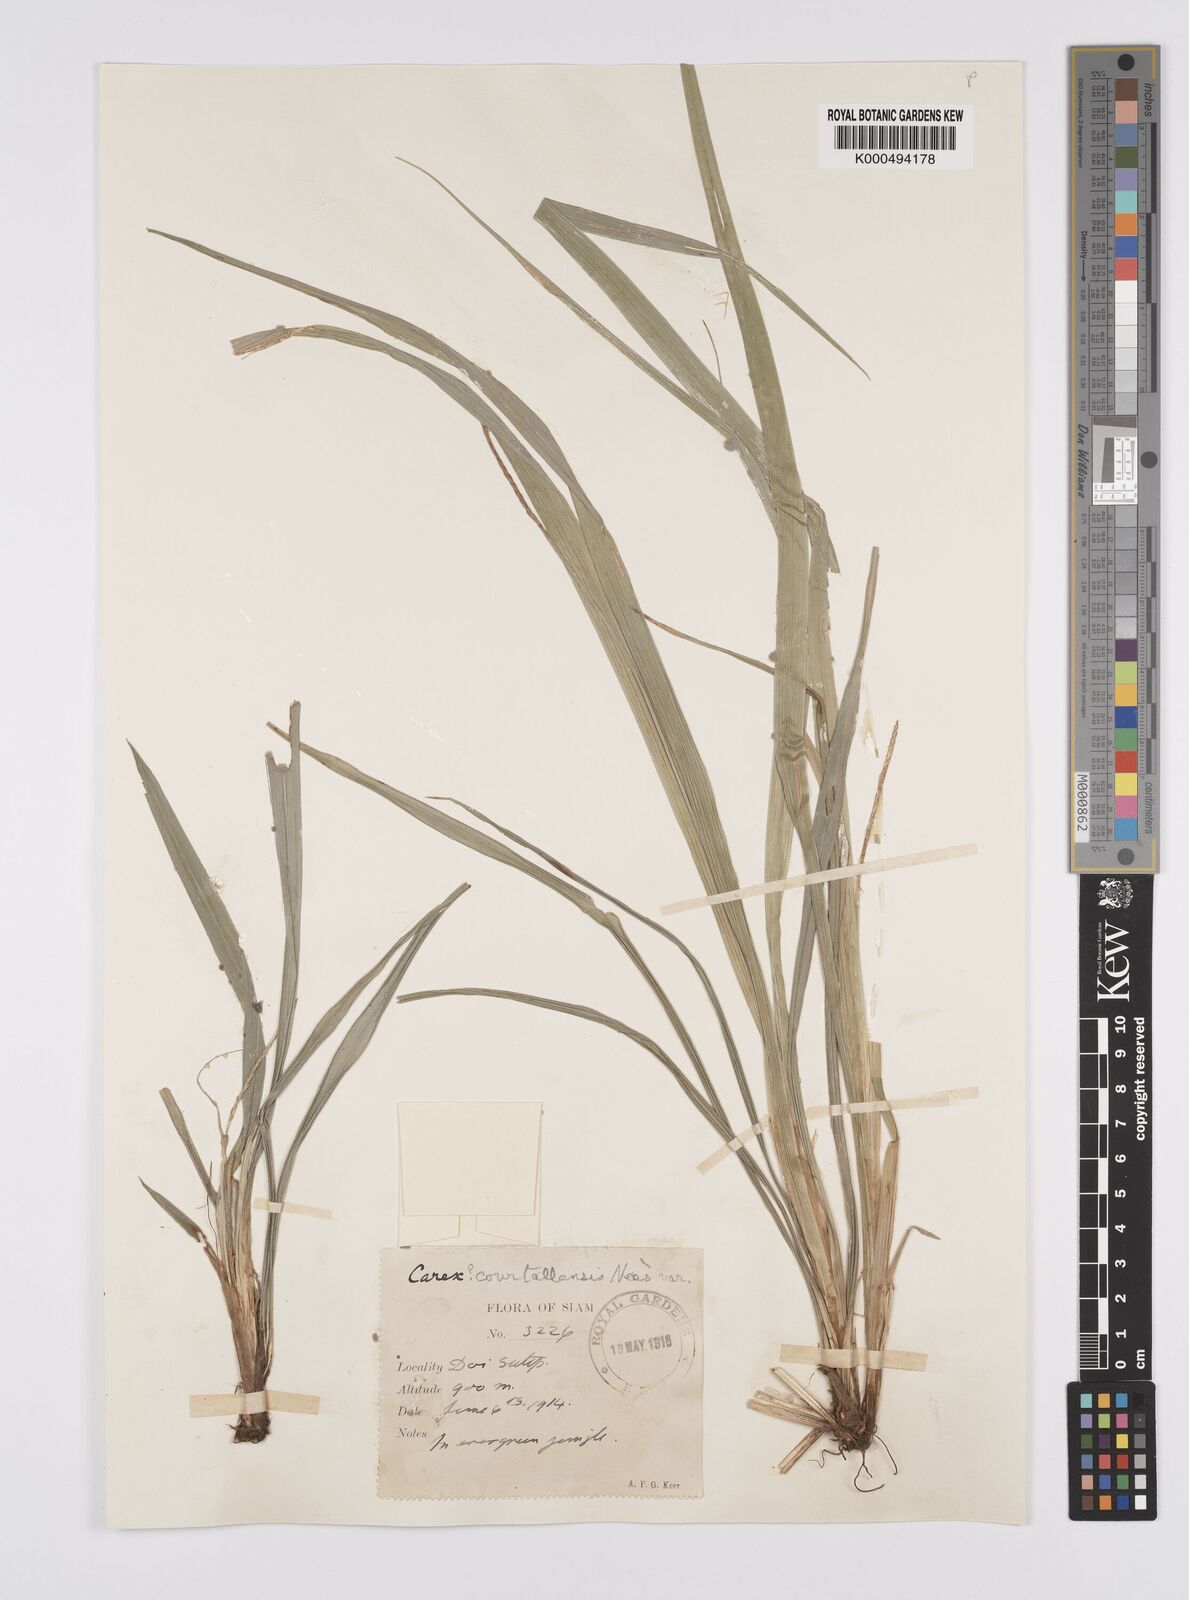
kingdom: Plantae
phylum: Tracheophyta
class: Liliopsida
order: Poales
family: Cyperaceae
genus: Carex
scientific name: Carex speciosa
